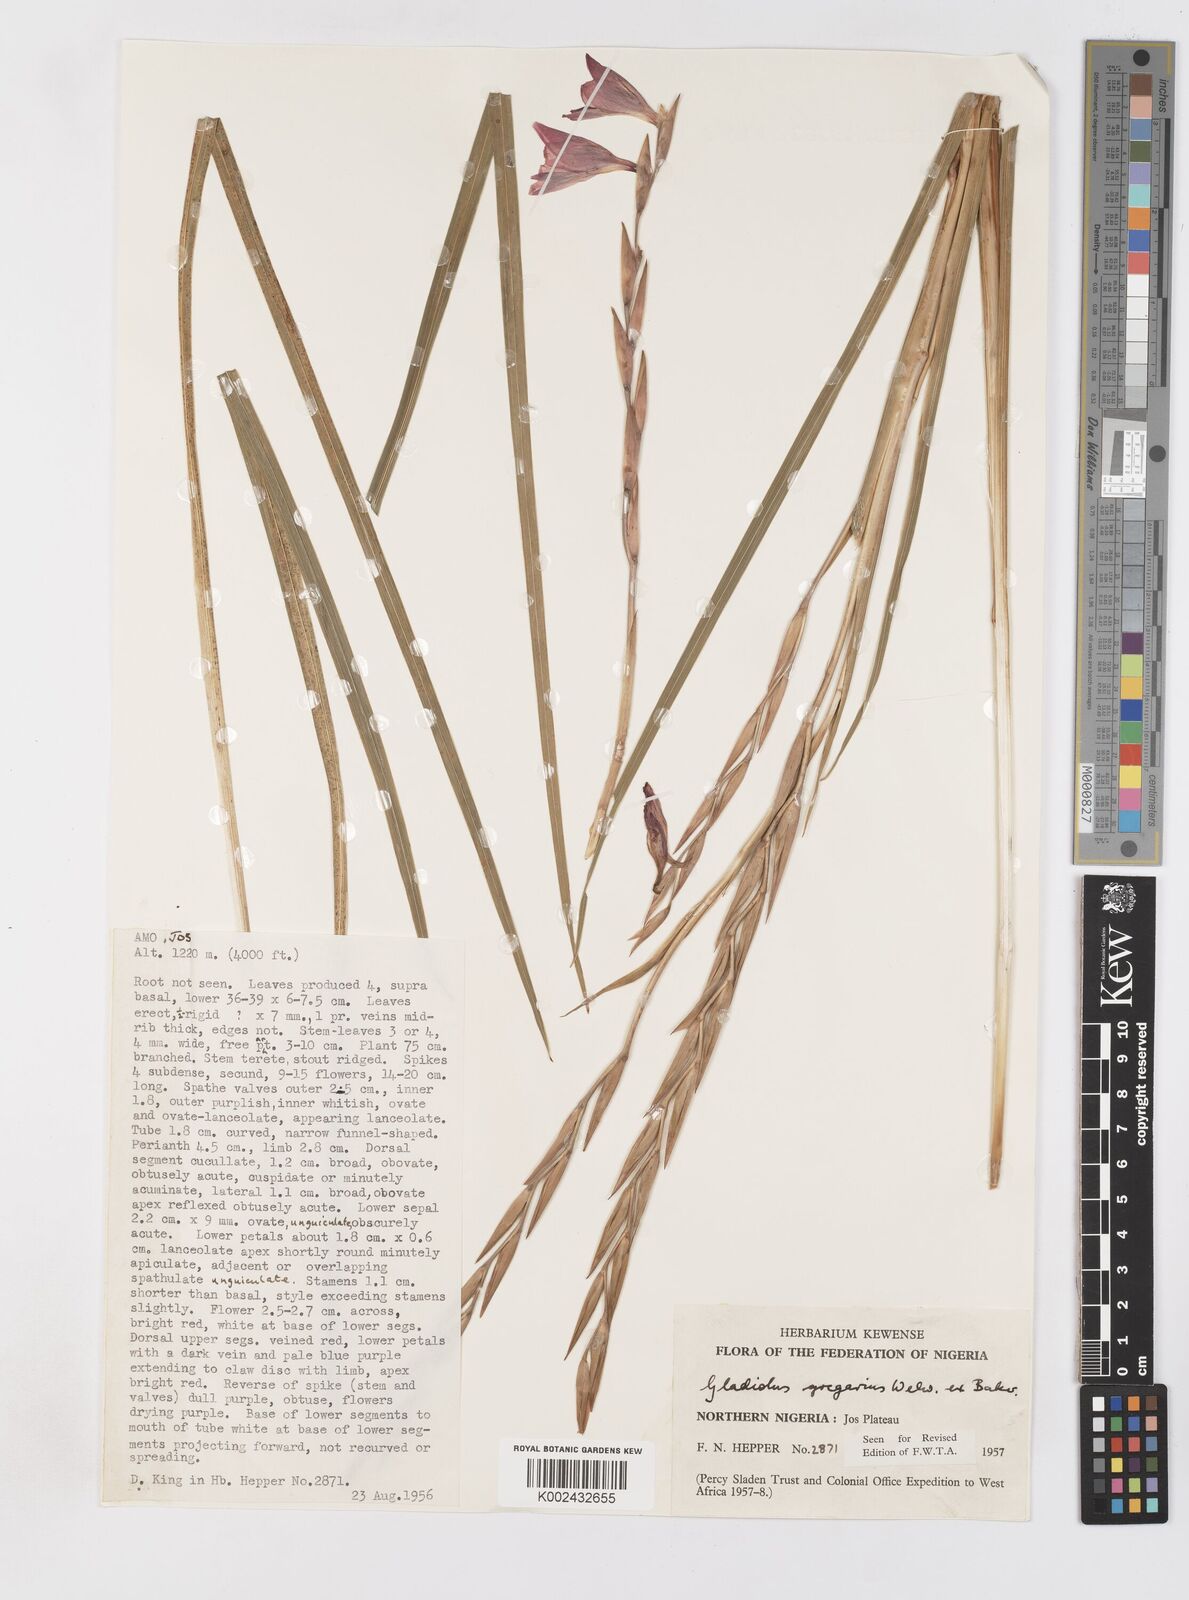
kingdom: Plantae
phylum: Tracheophyta
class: Liliopsida
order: Asparagales
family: Iridaceae
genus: Gladiolus
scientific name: Gladiolus gregarius
